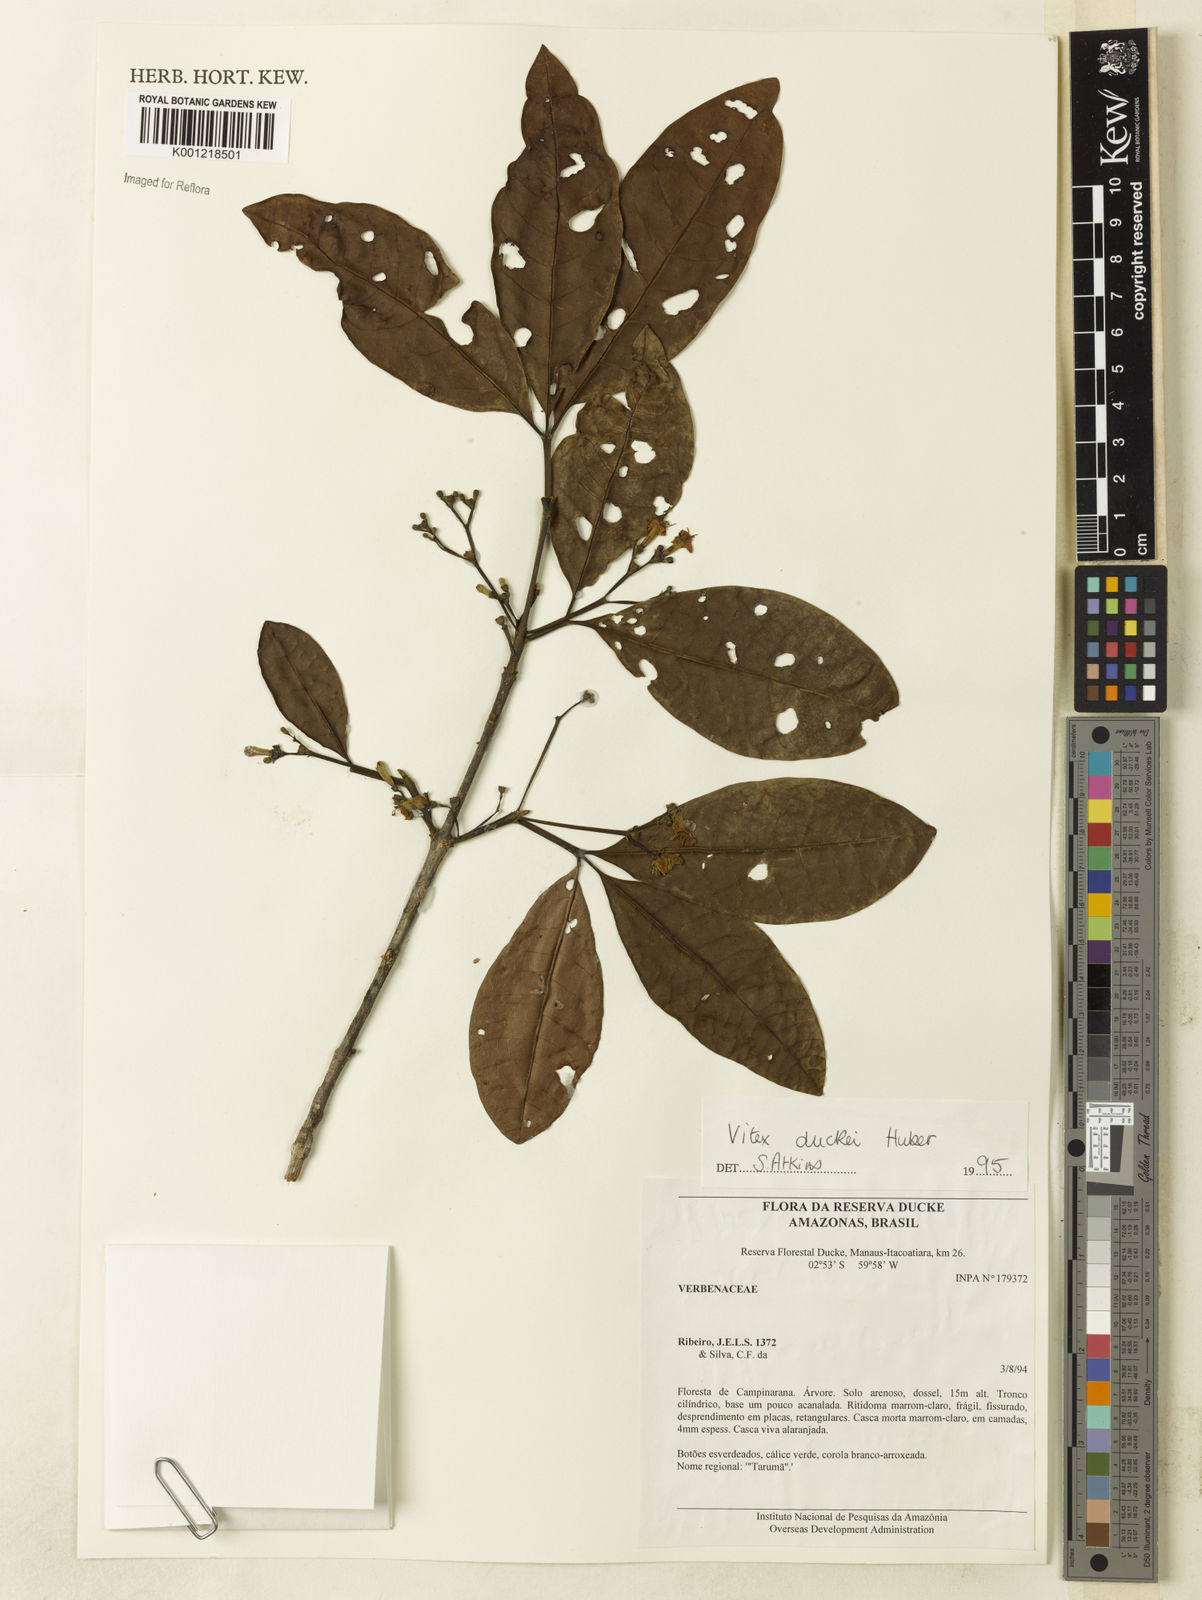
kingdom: Plantae
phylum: Tracheophyta
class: Magnoliopsida
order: Lamiales
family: Lamiaceae
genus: Vitex
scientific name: Vitex duckei
